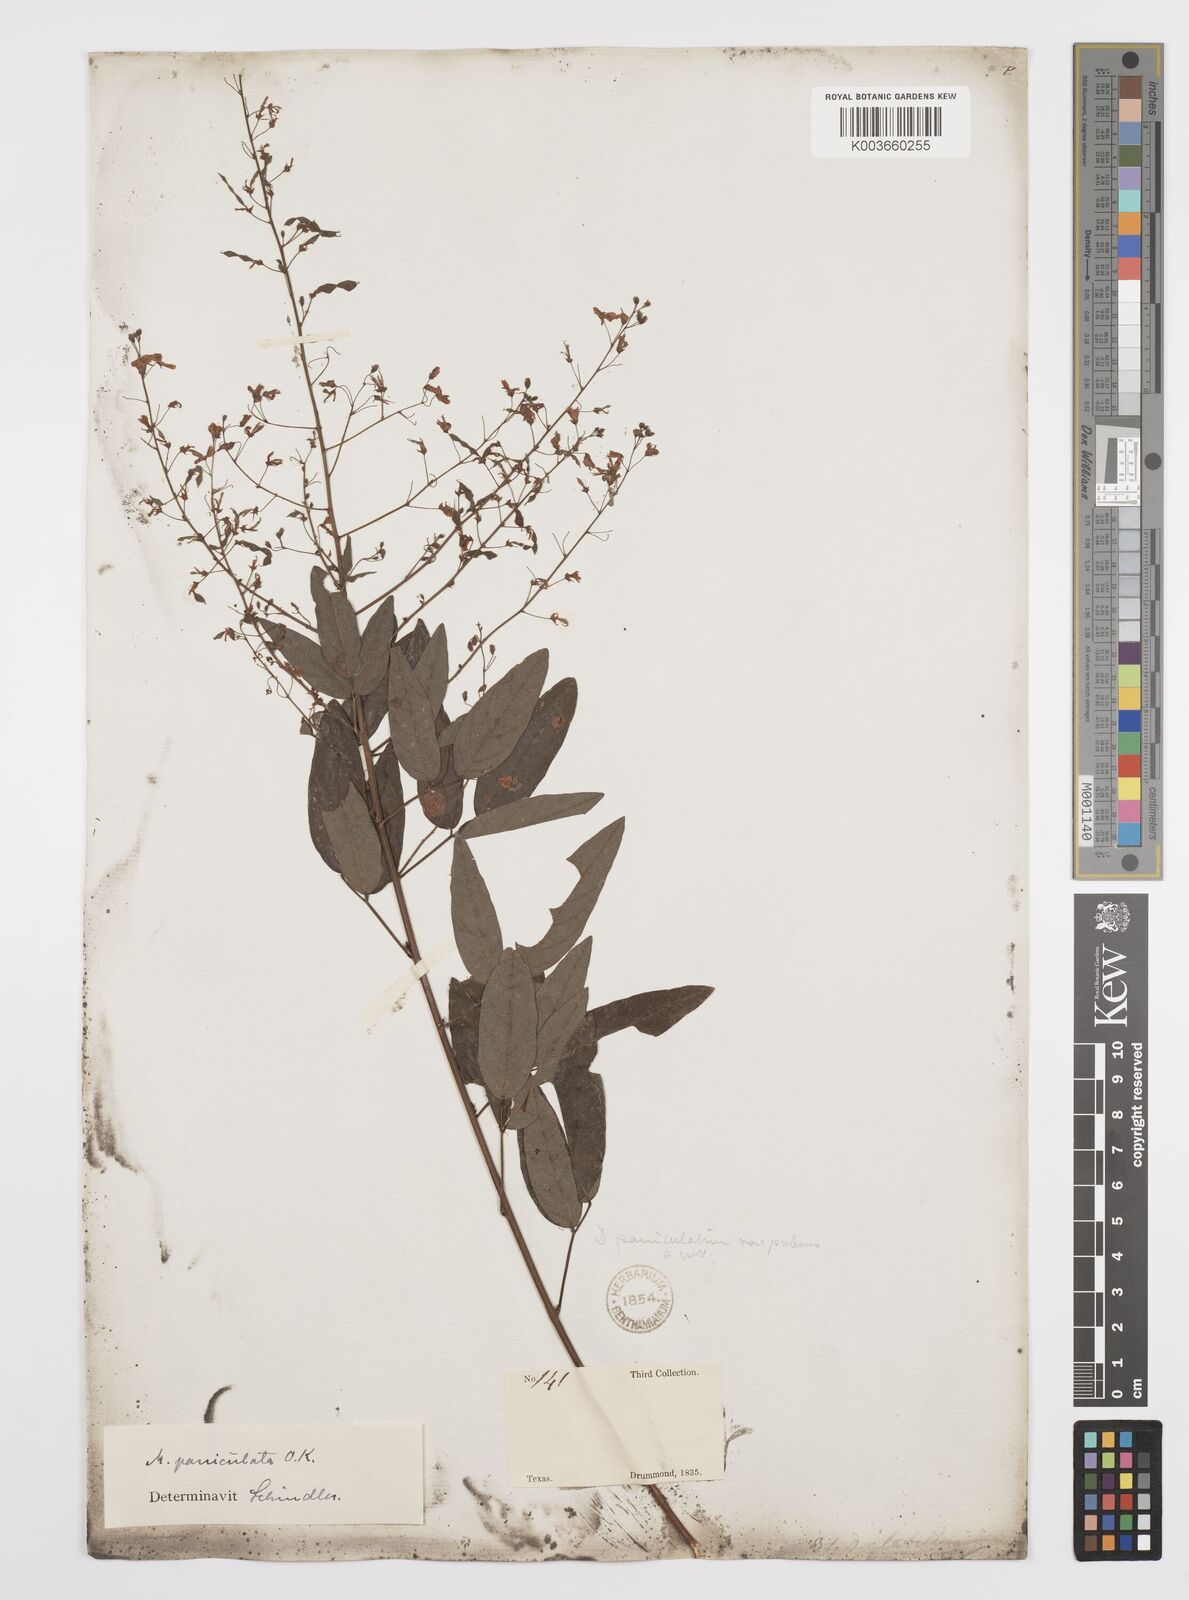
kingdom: Plantae
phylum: Tracheophyta
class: Magnoliopsida
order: Fabales
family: Fabaceae
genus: Desmodium
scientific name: Desmodium paniculatum
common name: Panicled tick-clover
